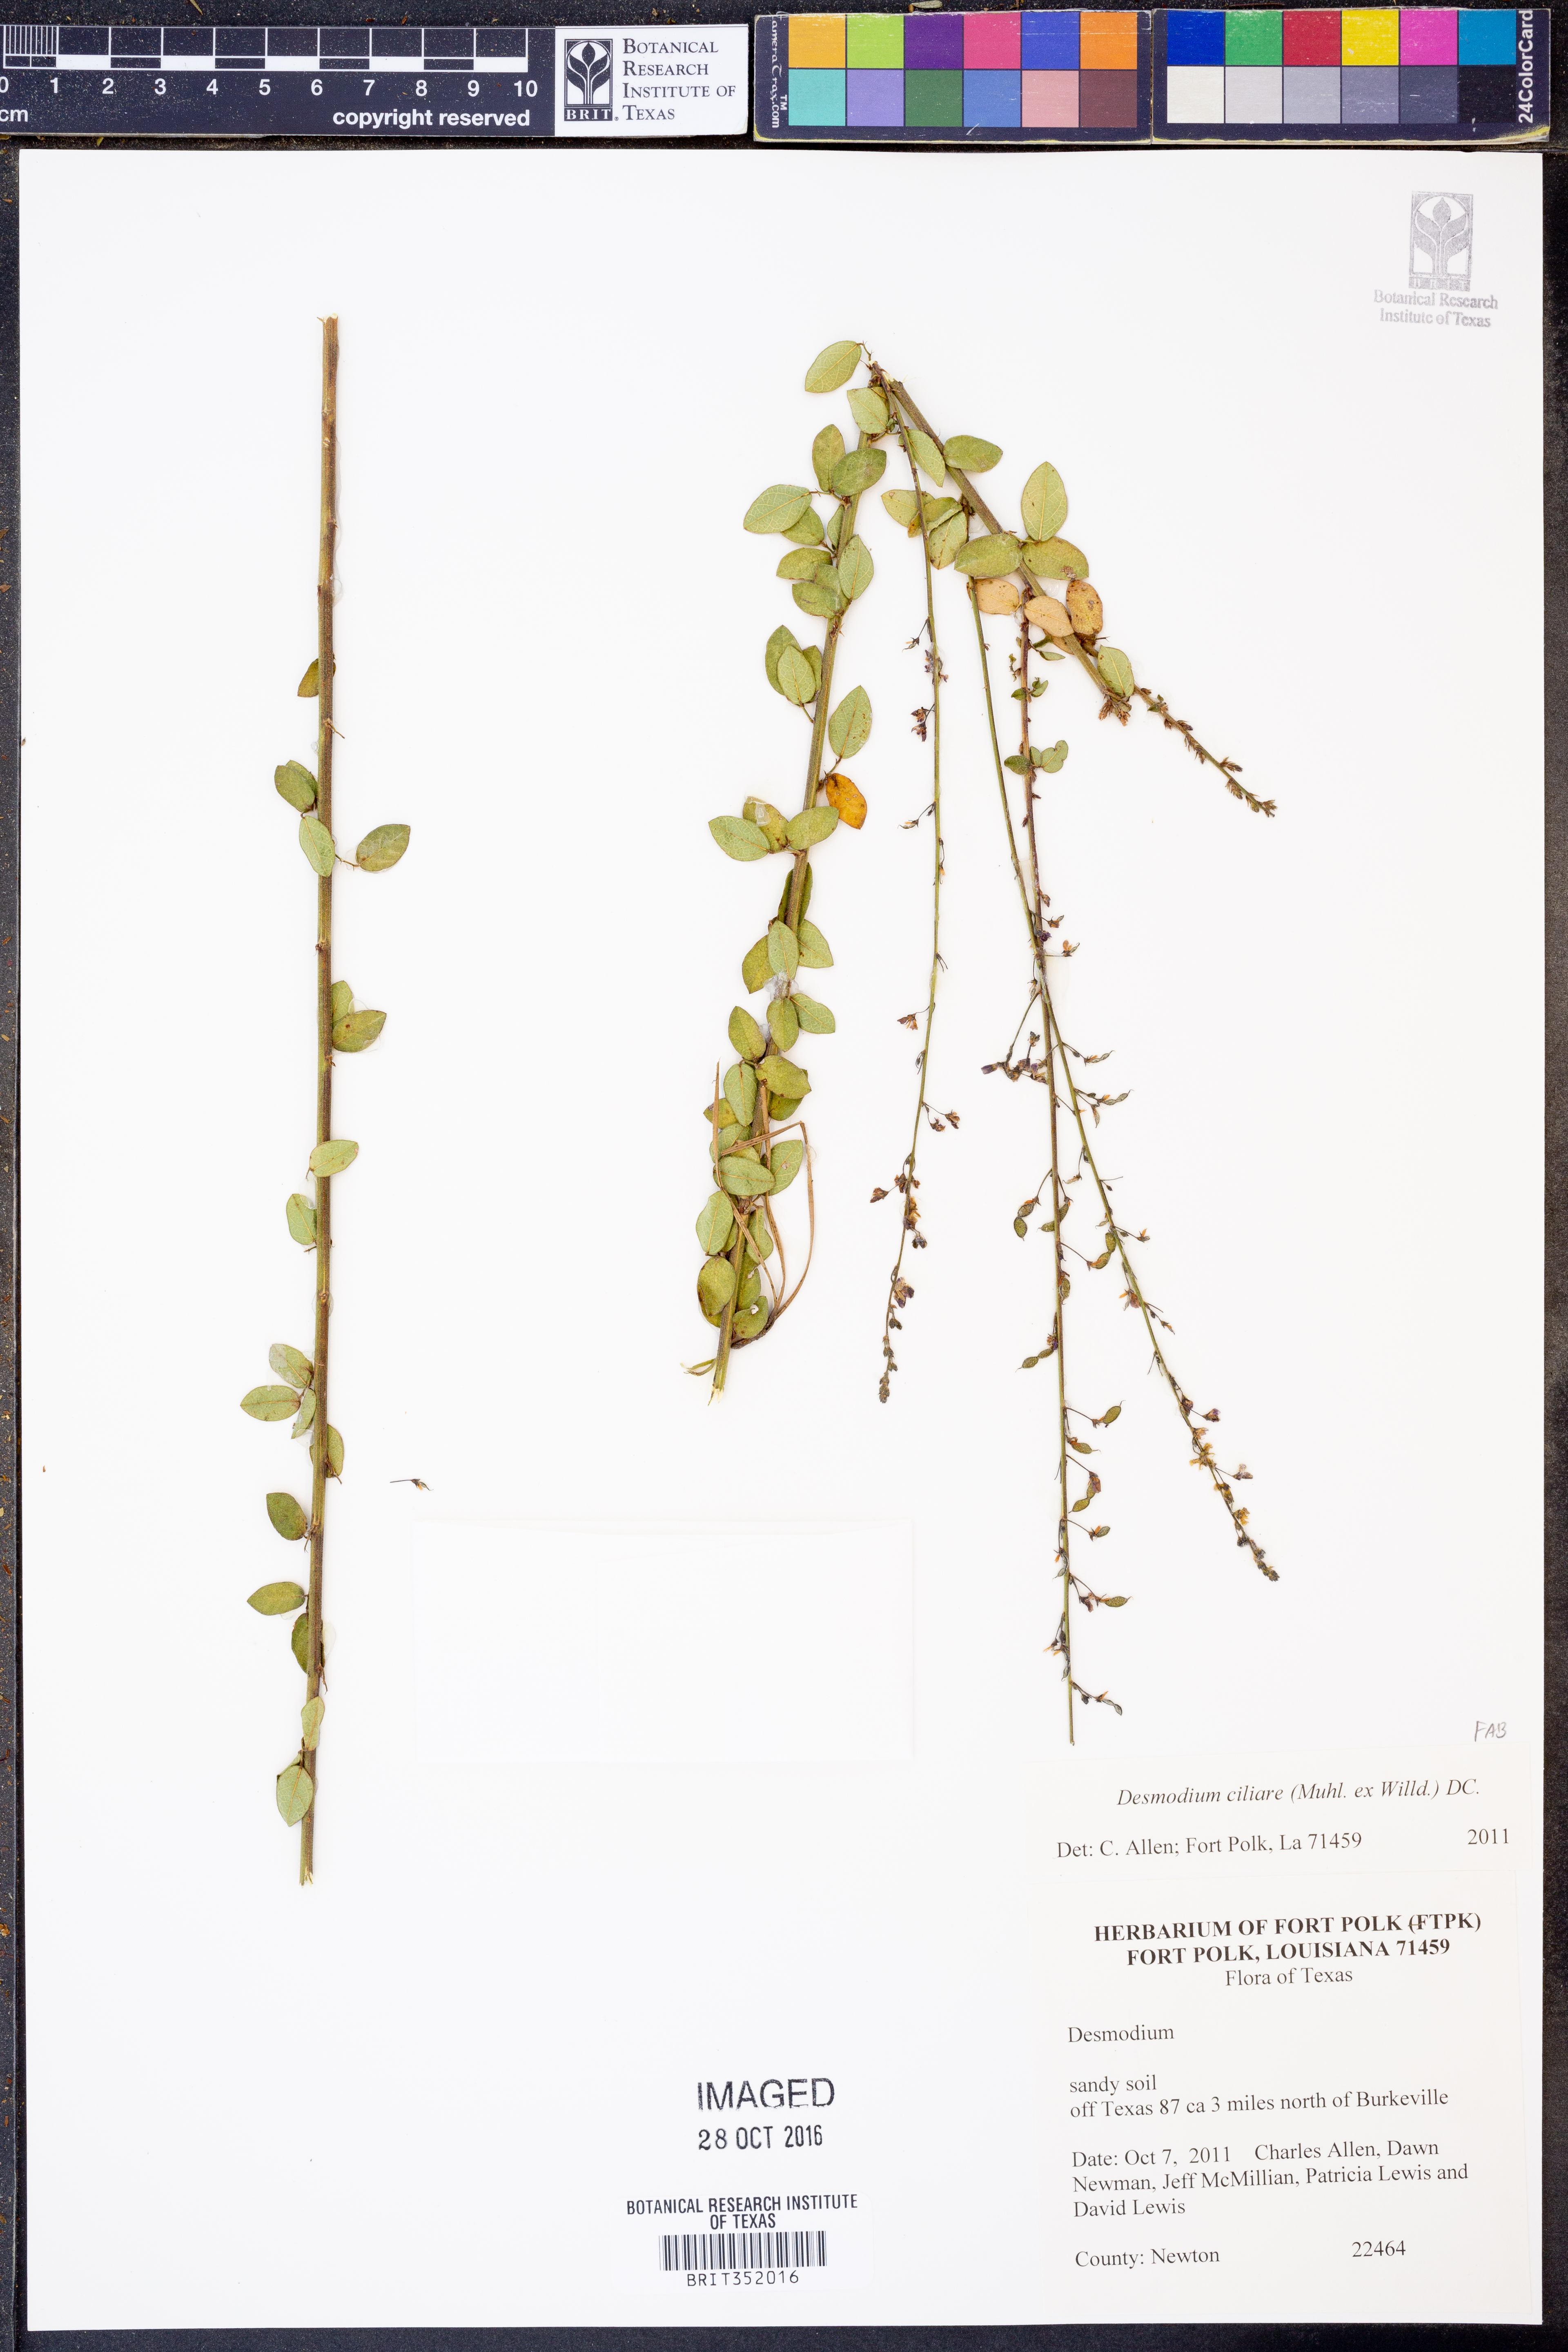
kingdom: Plantae
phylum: Tracheophyta
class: Magnoliopsida
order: Fabales
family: Fabaceae
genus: Desmodium
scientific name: Desmodium ciliare
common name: Hairy small-leaf ticktrefoil
